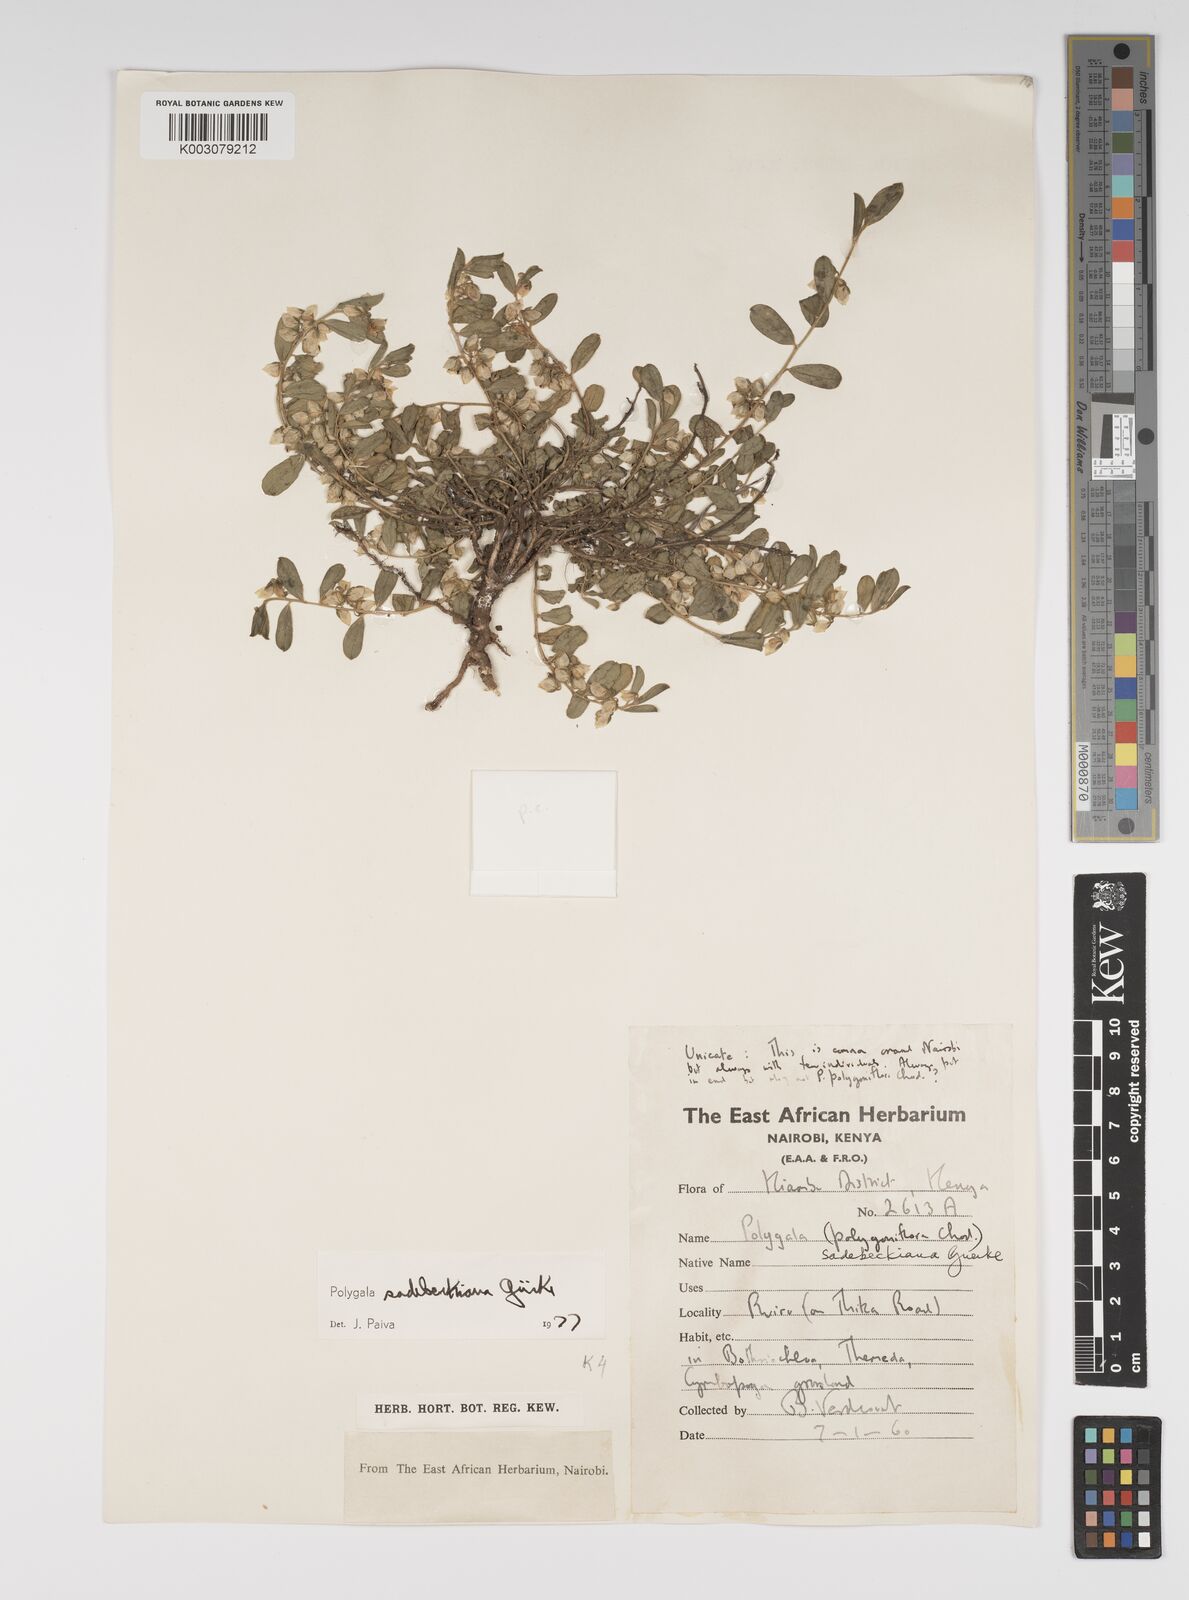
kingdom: Plantae
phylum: Tracheophyta
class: Magnoliopsida
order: Fabales
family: Polygalaceae
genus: Polygala
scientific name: Polygala sadebeckiana
